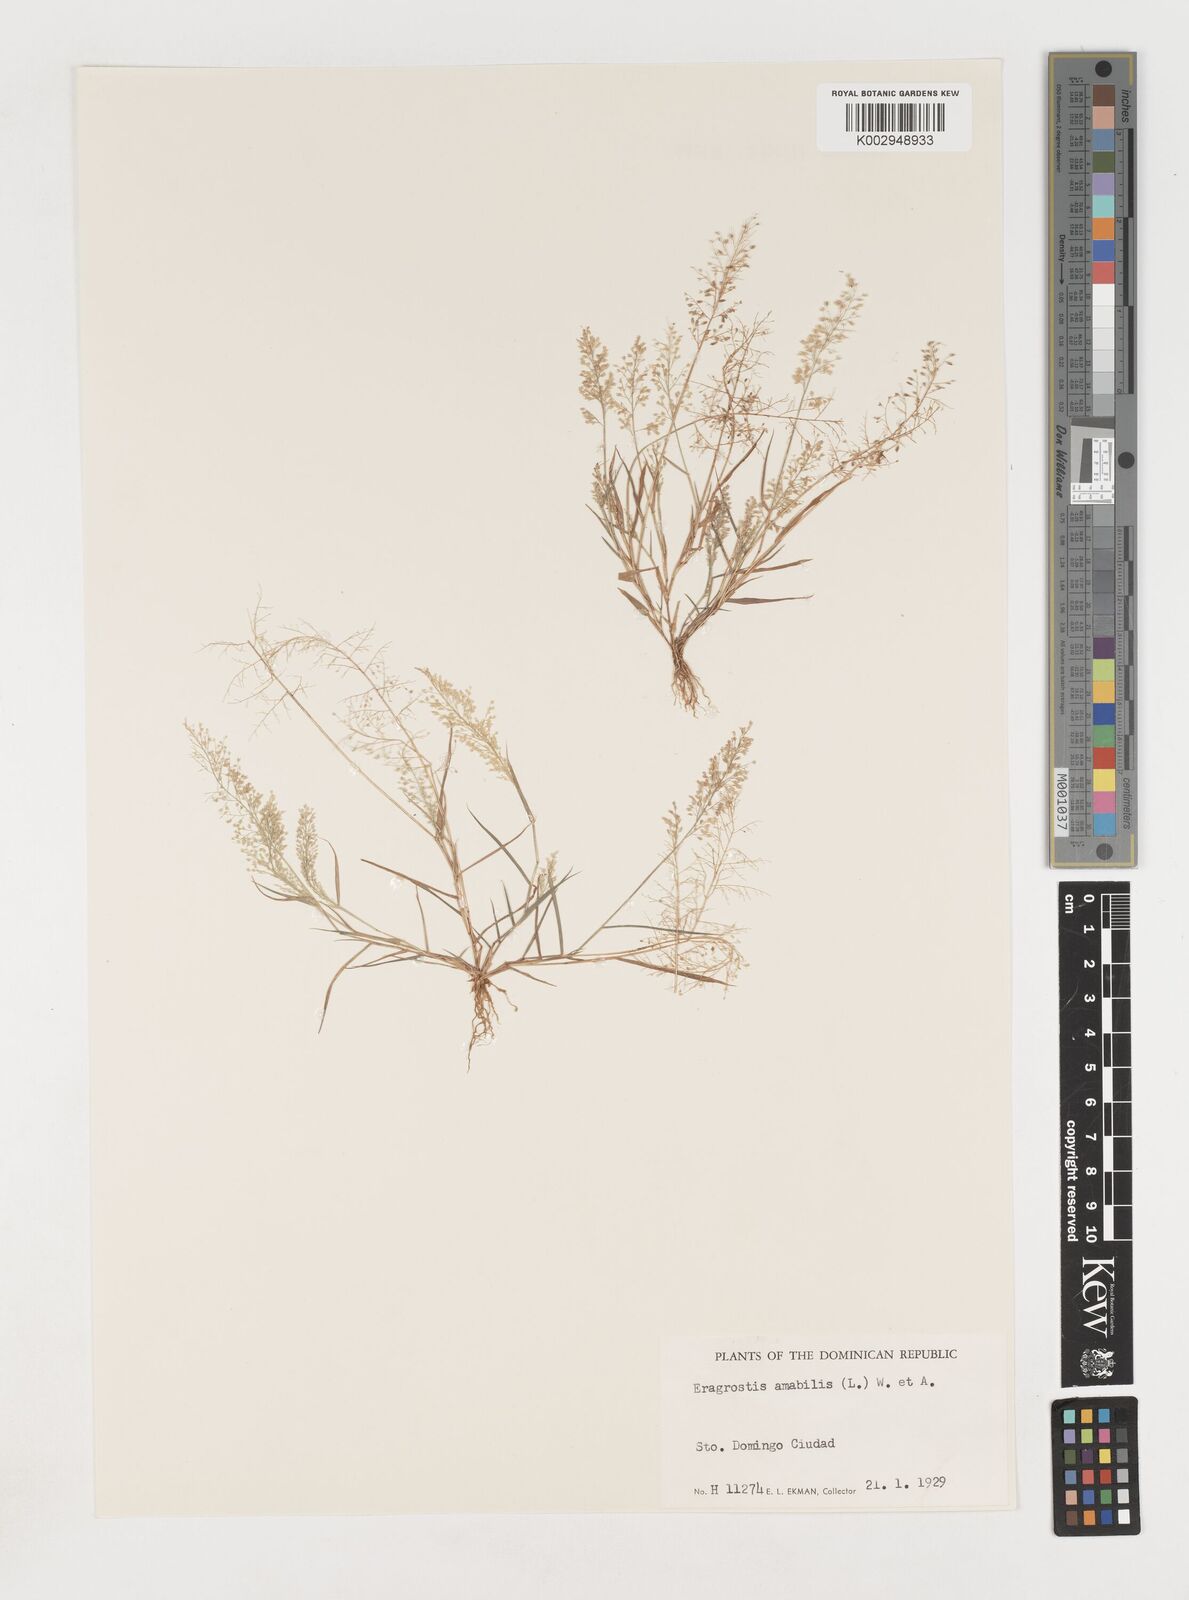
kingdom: Plantae
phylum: Tracheophyta
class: Liliopsida
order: Poales
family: Poaceae
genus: Eragrostis
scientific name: Eragrostis
